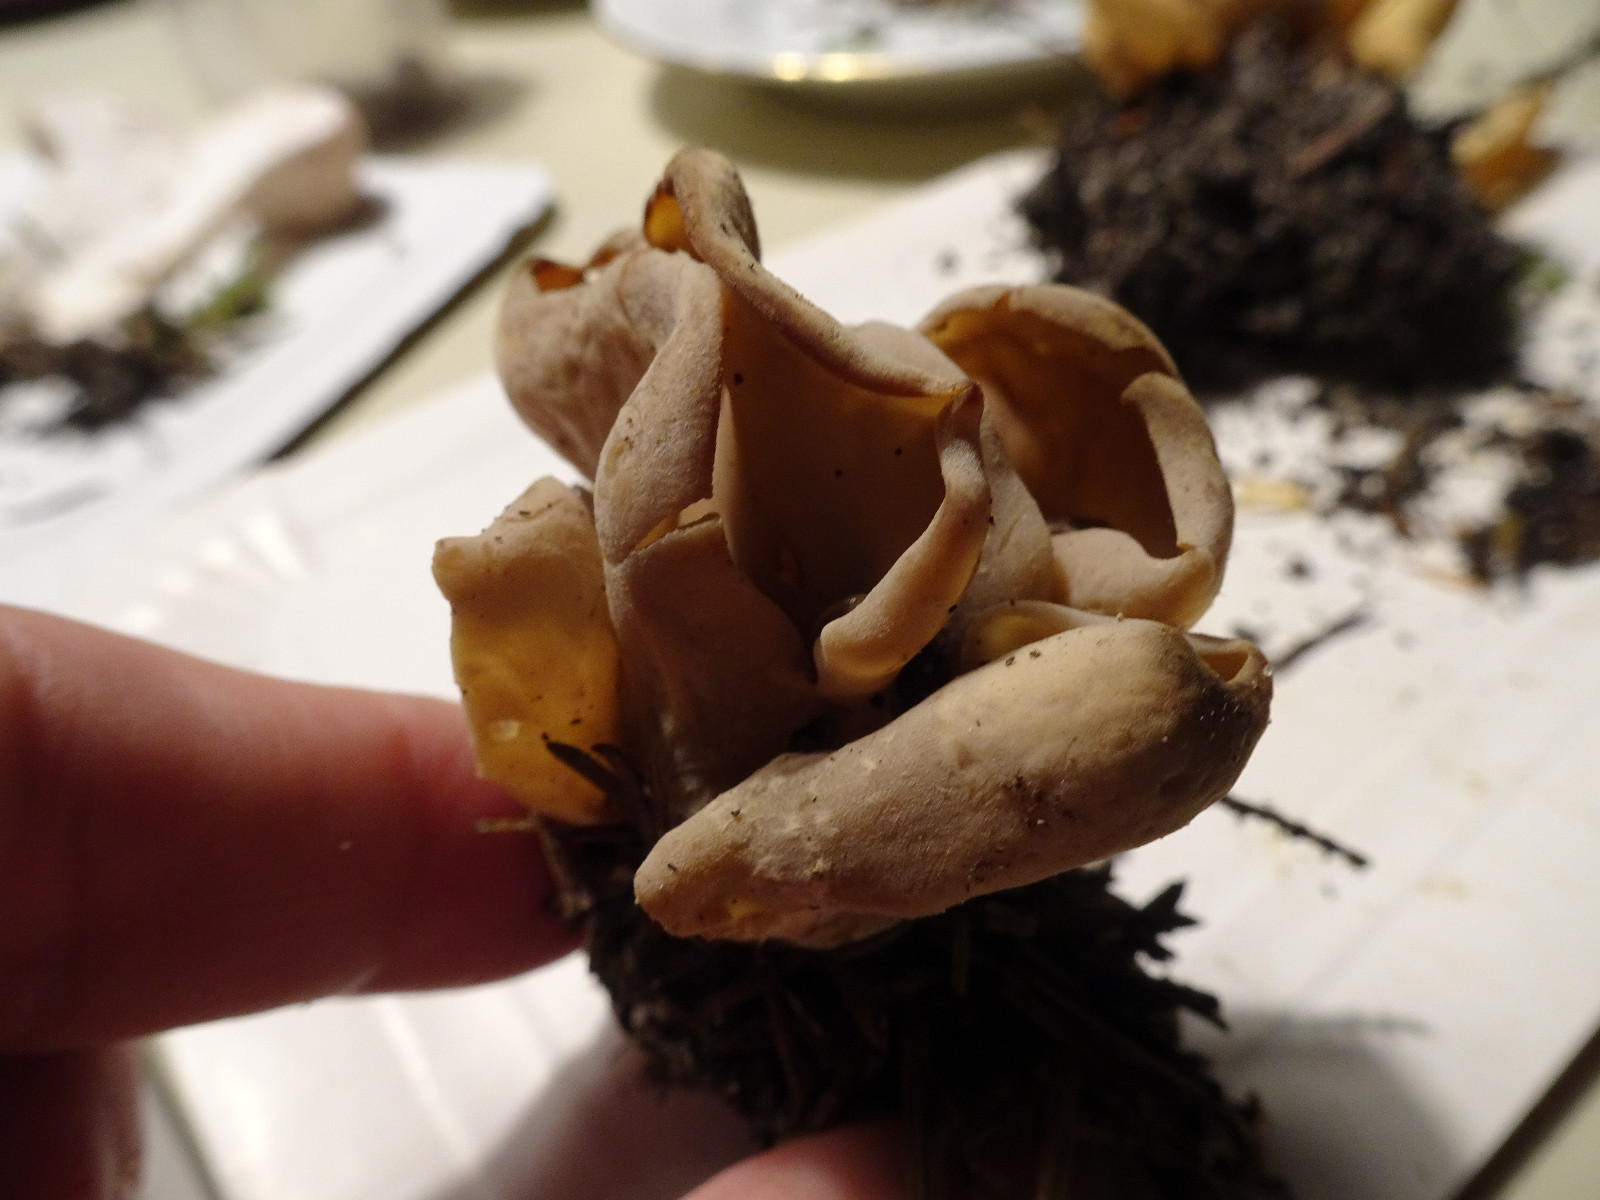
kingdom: Fungi
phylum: Ascomycota
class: Pezizomycetes
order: Pezizales
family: Otideaceae
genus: Otidea
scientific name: Otidea alutacea
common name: læder-ørebæger
